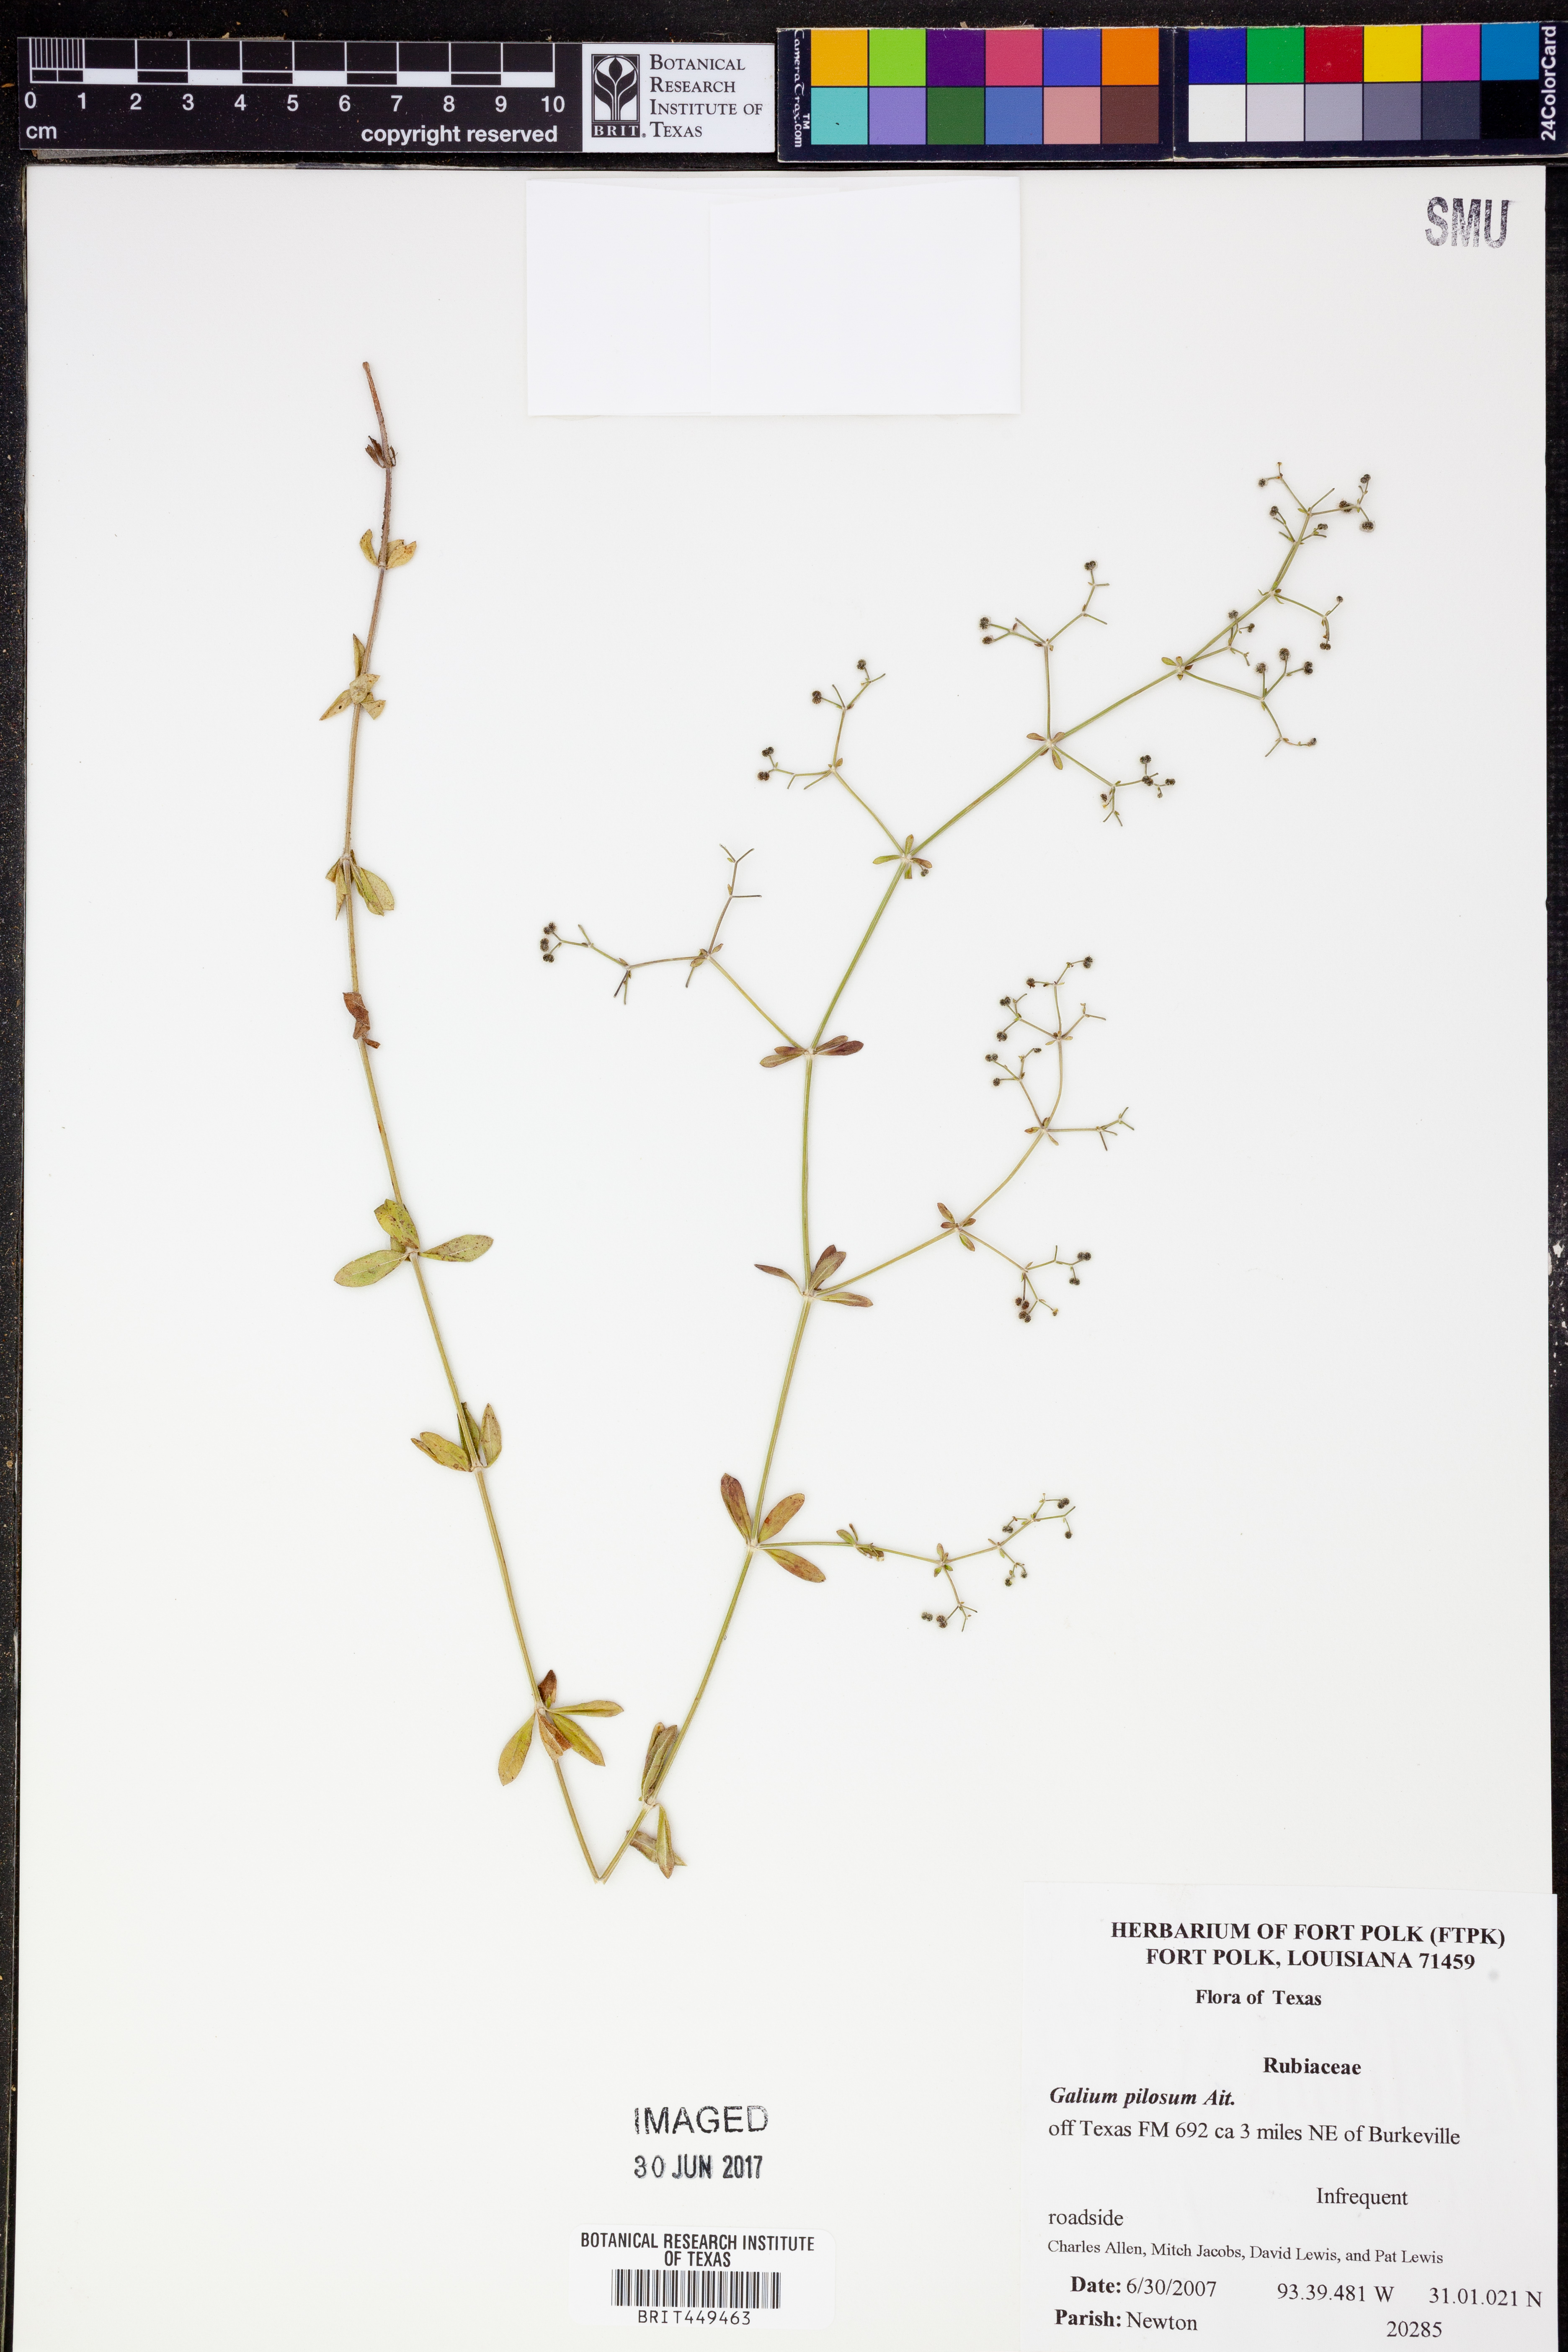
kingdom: Plantae
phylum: Tracheophyta
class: Magnoliopsida
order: Gentianales
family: Rubiaceae
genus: Galium
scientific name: Galium pilosum
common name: Hairy bedstraw
